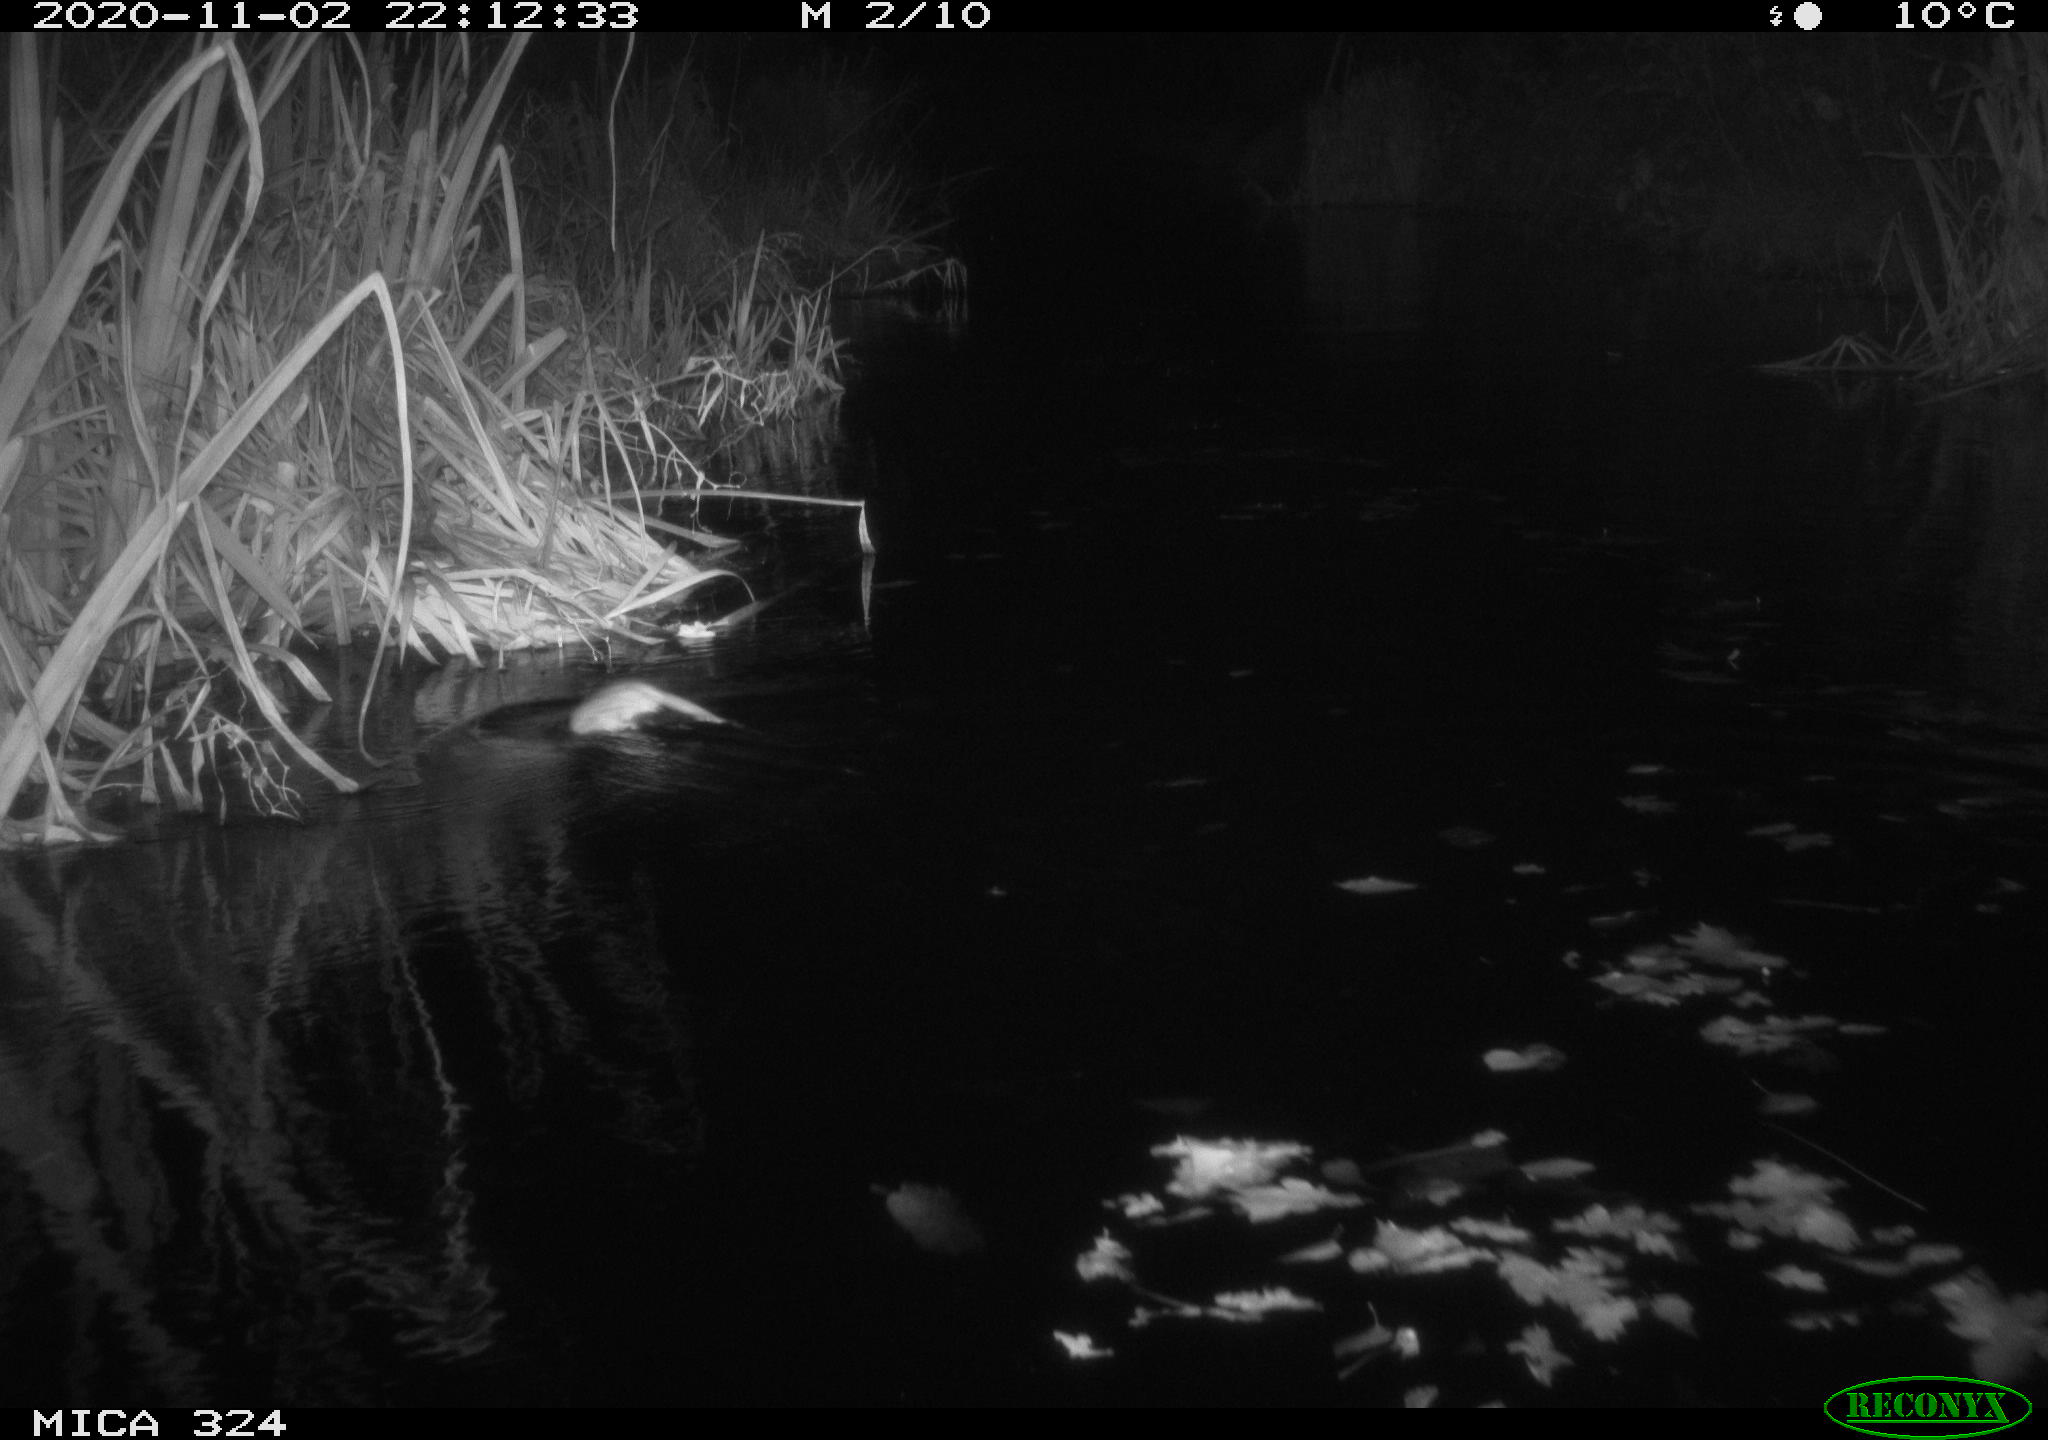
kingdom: Animalia
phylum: Chordata
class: Mammalia
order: Rodentia
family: Cricetidae
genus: Ondatra
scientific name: Ondatra zibethicus
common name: Muskrat
